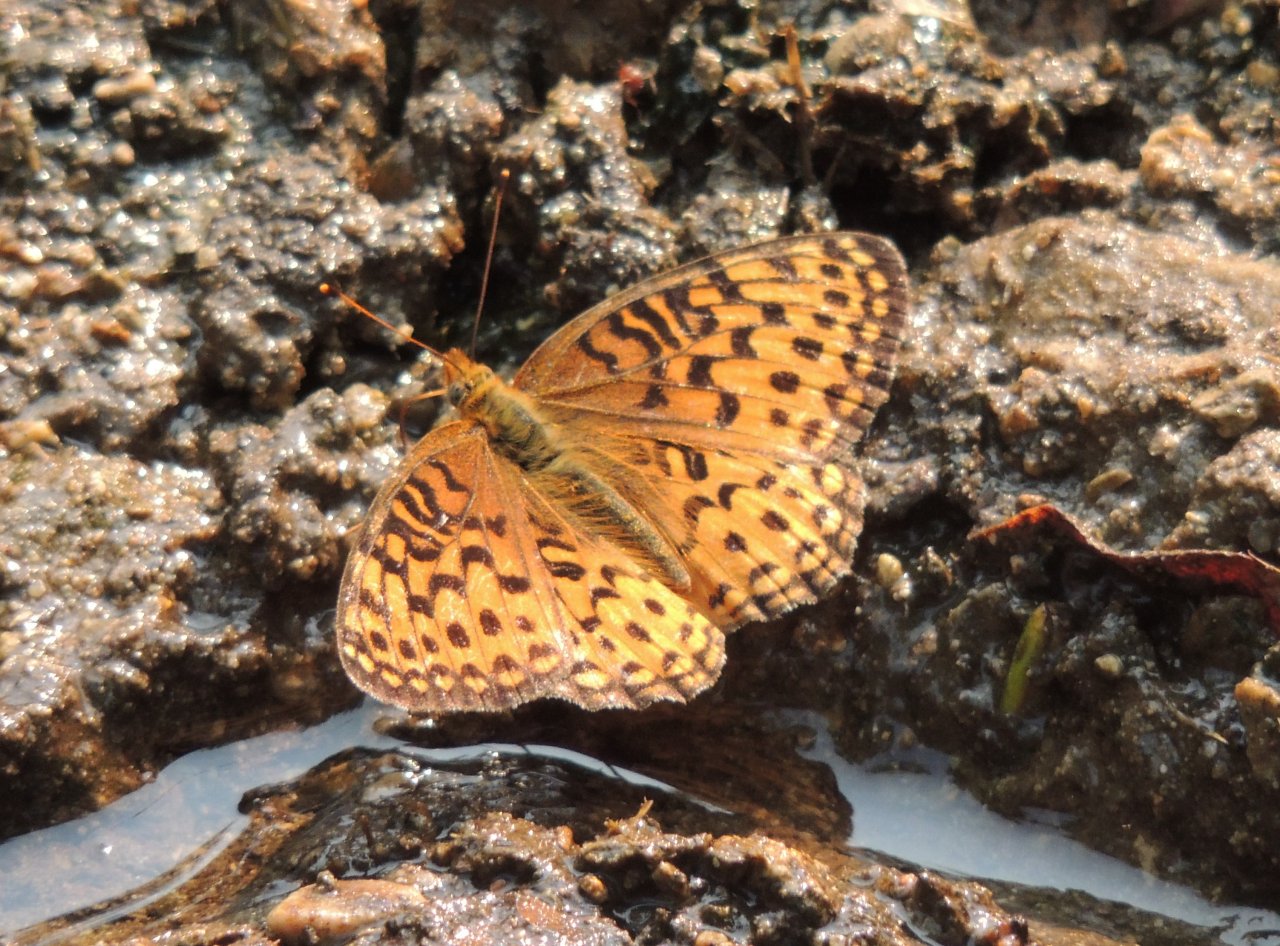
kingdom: Animalia
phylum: Arthropoda
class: Insecta
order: Lepidoptera
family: Nymphalidae
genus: Speyeria
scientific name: Speyeria
